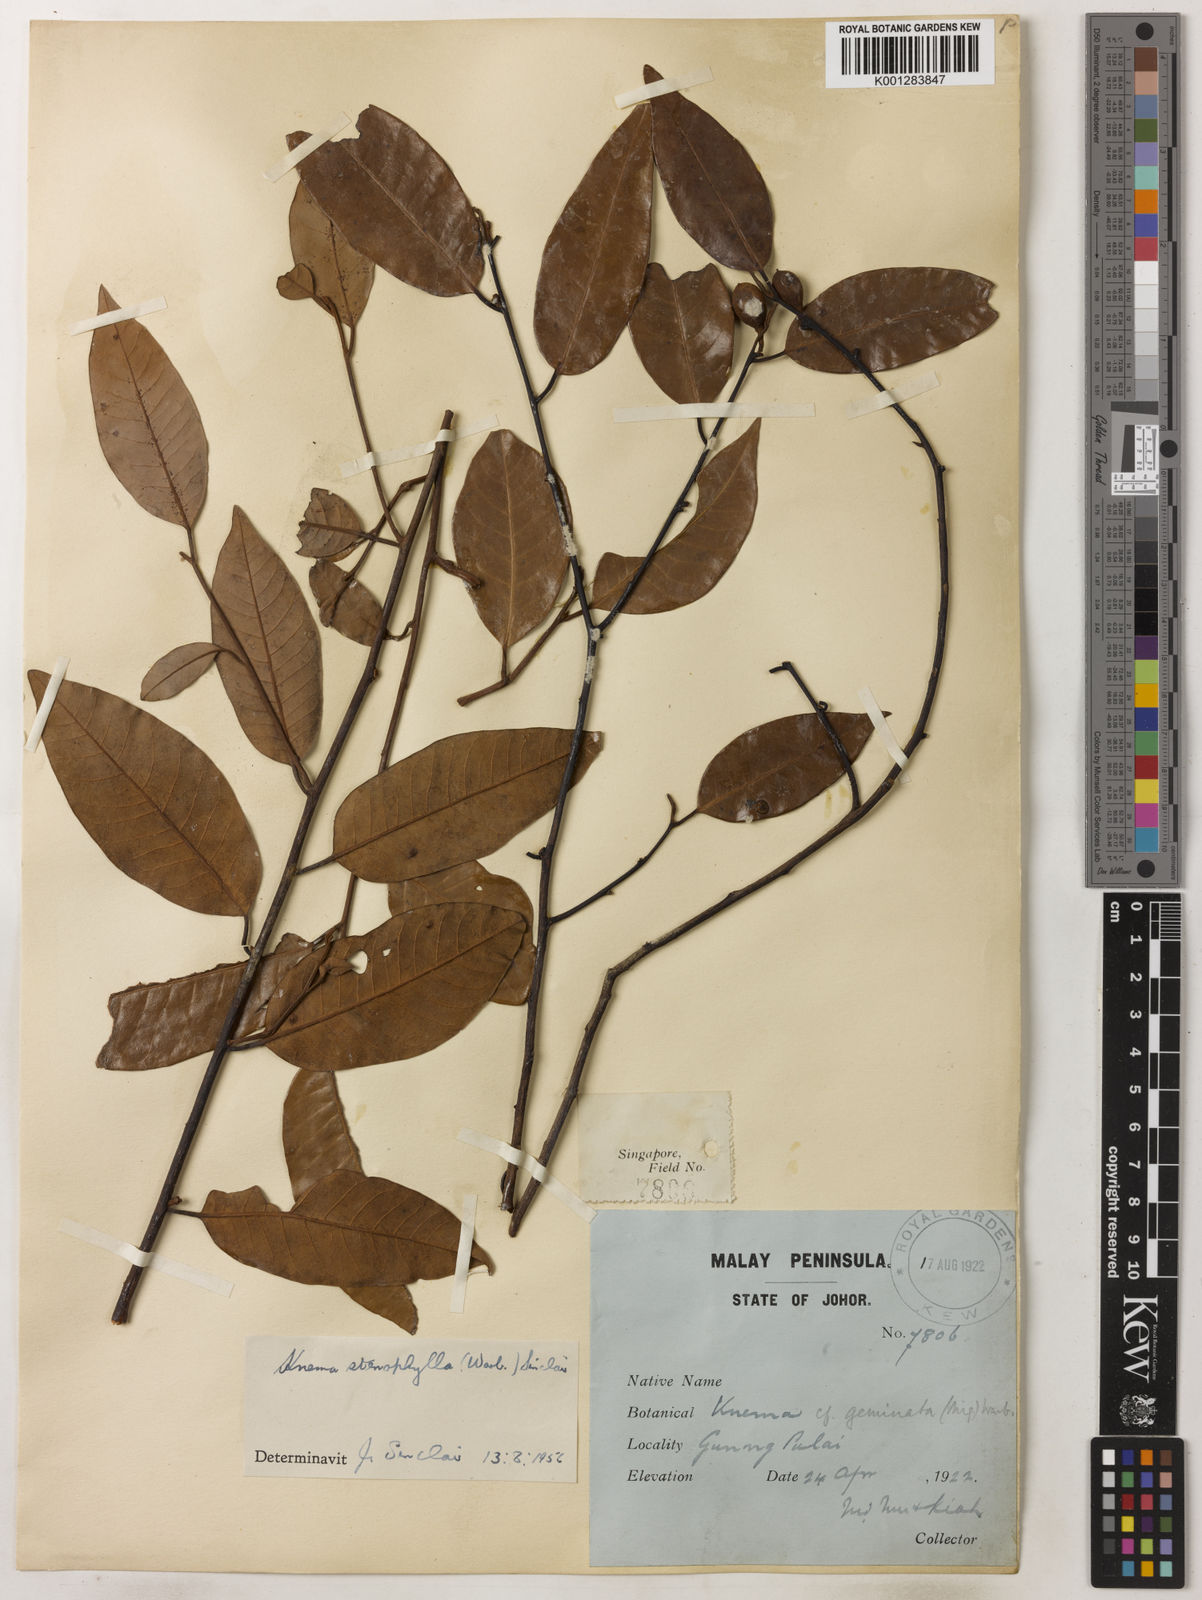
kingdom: Plantae
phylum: Tracheophyta
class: Magnoliopsida
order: Magnoliales
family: Myristicaceae
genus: Knema
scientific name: Knema stenophylla
